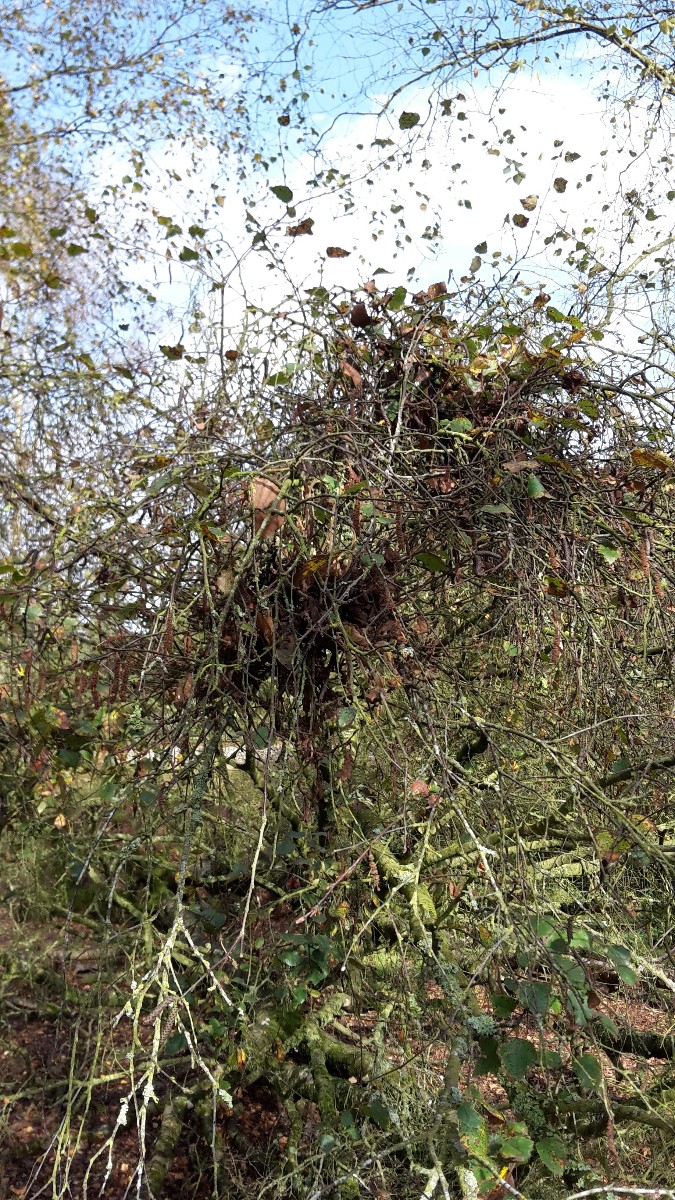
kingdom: Fungi
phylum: Ascomycota
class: Taphrinomycetes
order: Taphrinales
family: Taphrinaceae
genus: Taphrina
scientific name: Taphrina betulina
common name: hekse-sækdug
